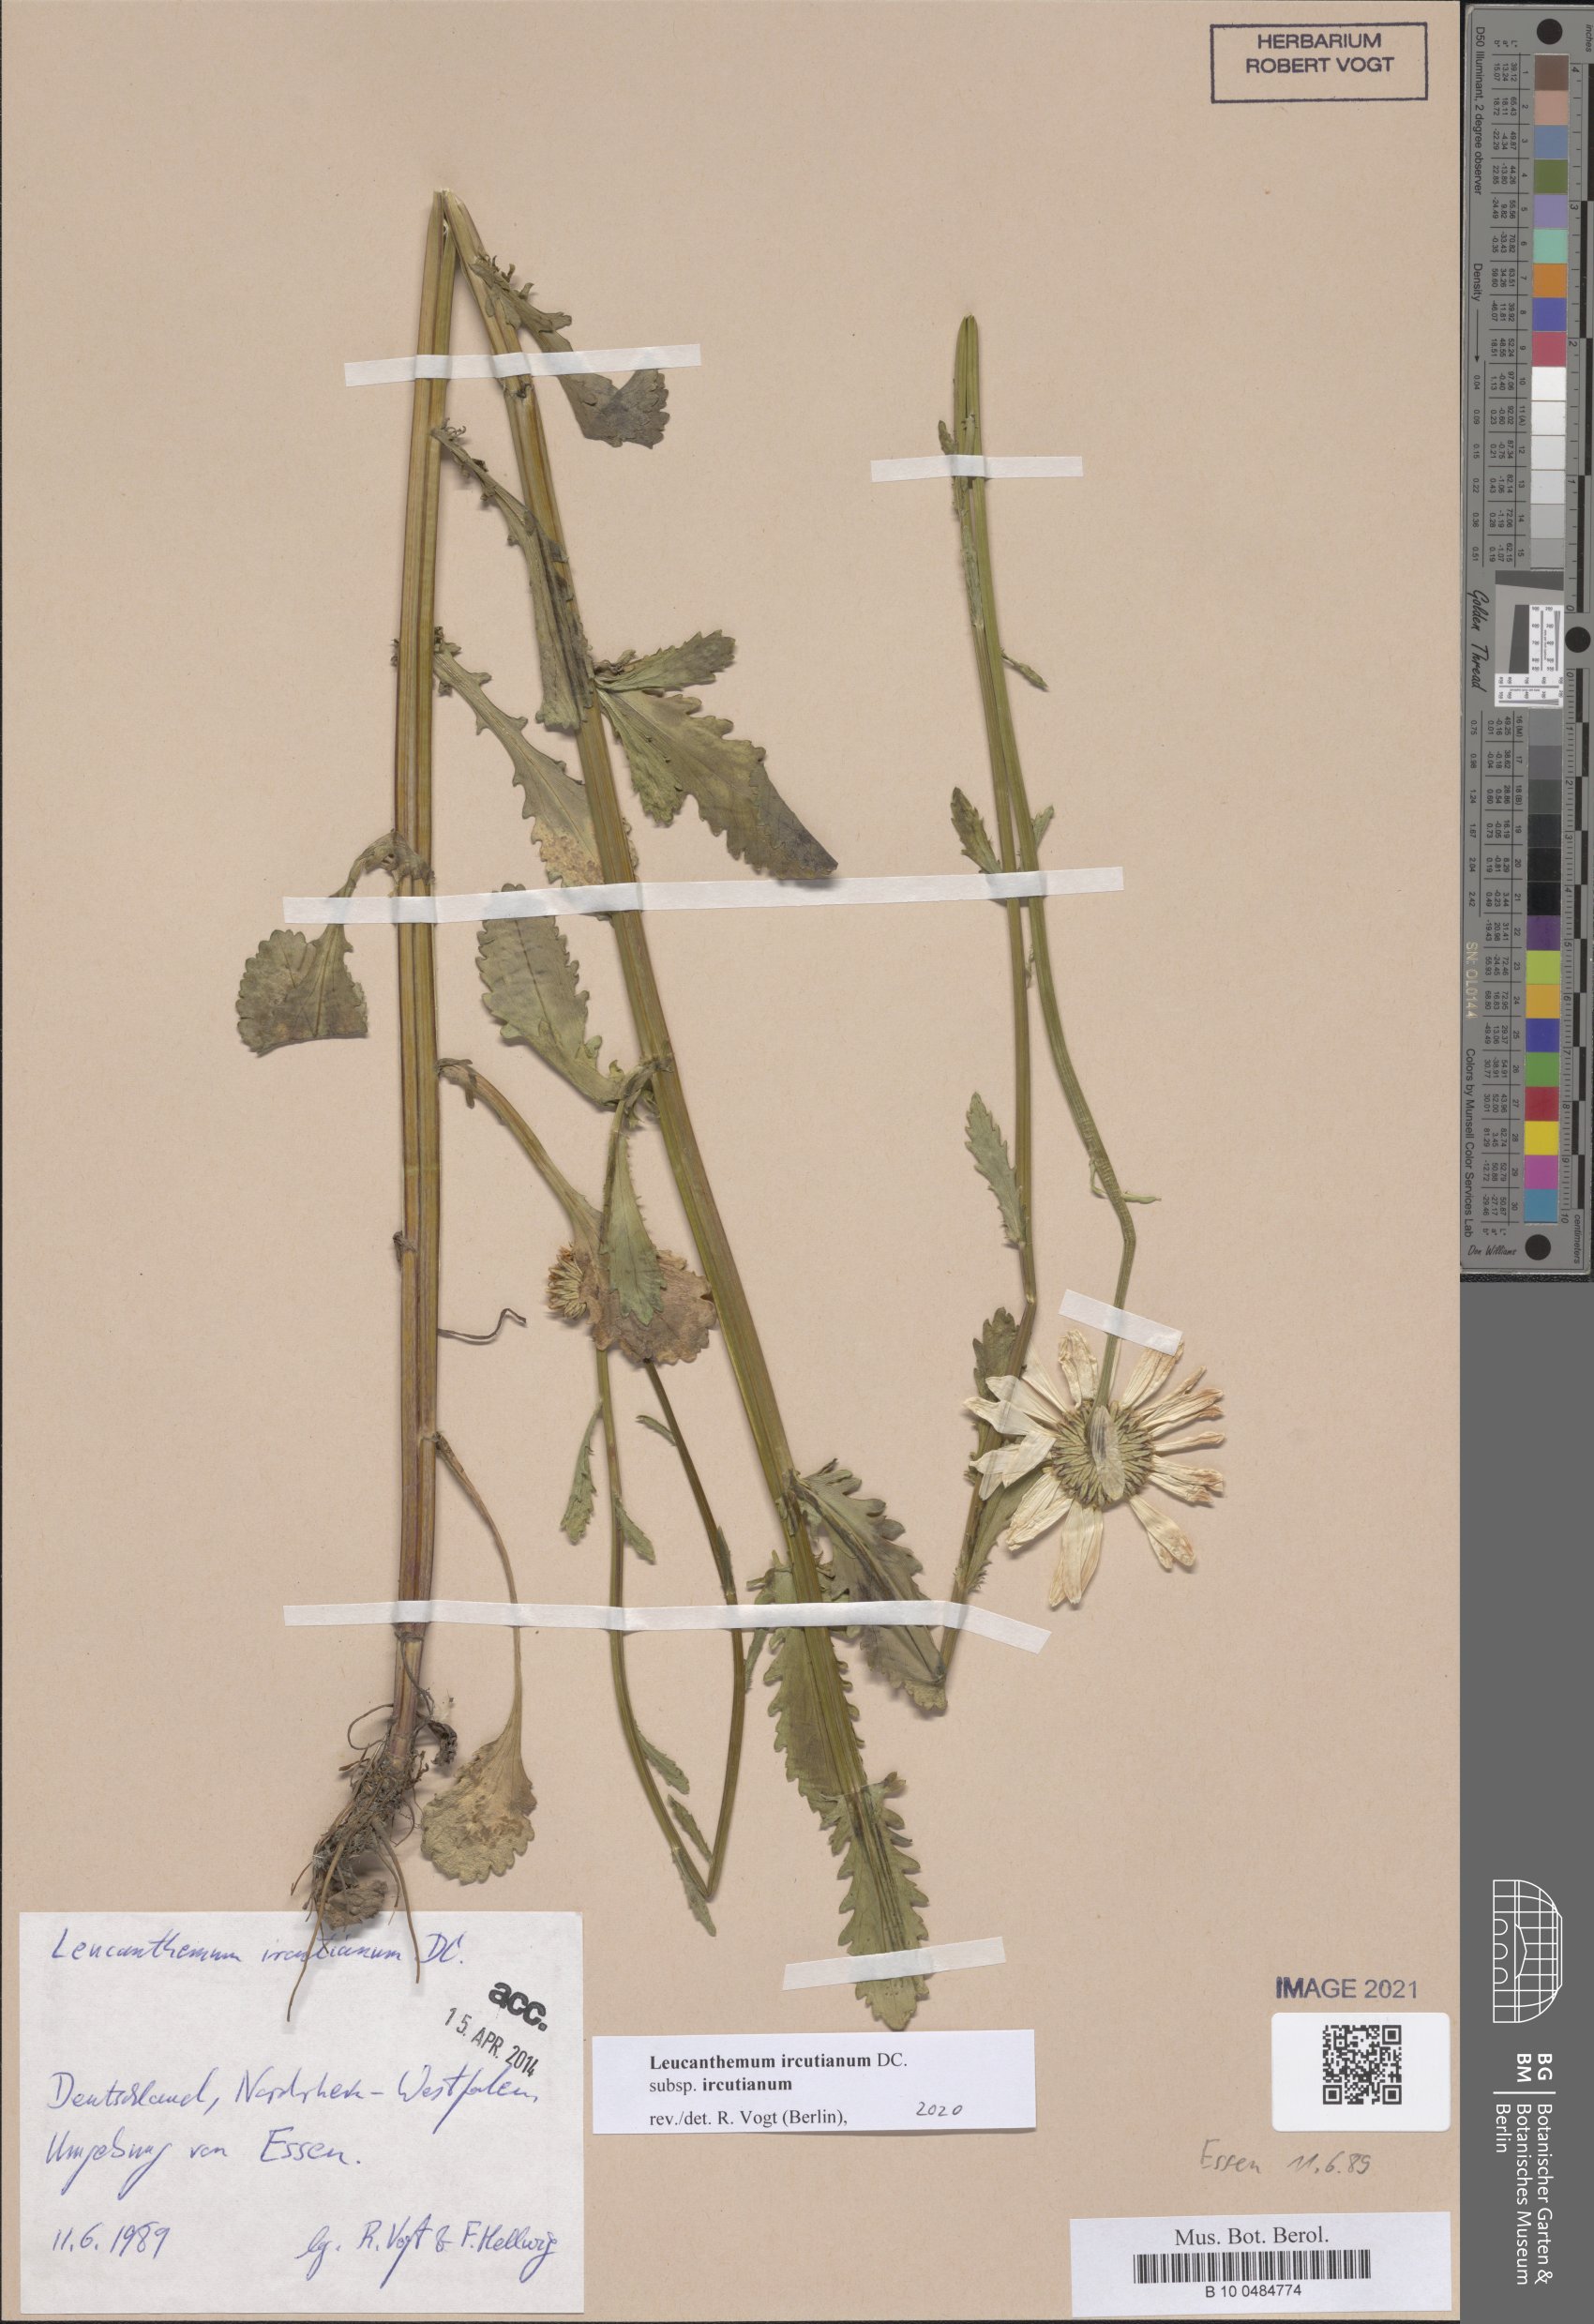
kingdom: Plantae
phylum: Tracheophyta
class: Magnoliopsida
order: Asterales
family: Asteraceae
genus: Leucanthemum
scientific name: Leucanthemum ircutianum
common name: Daisy
